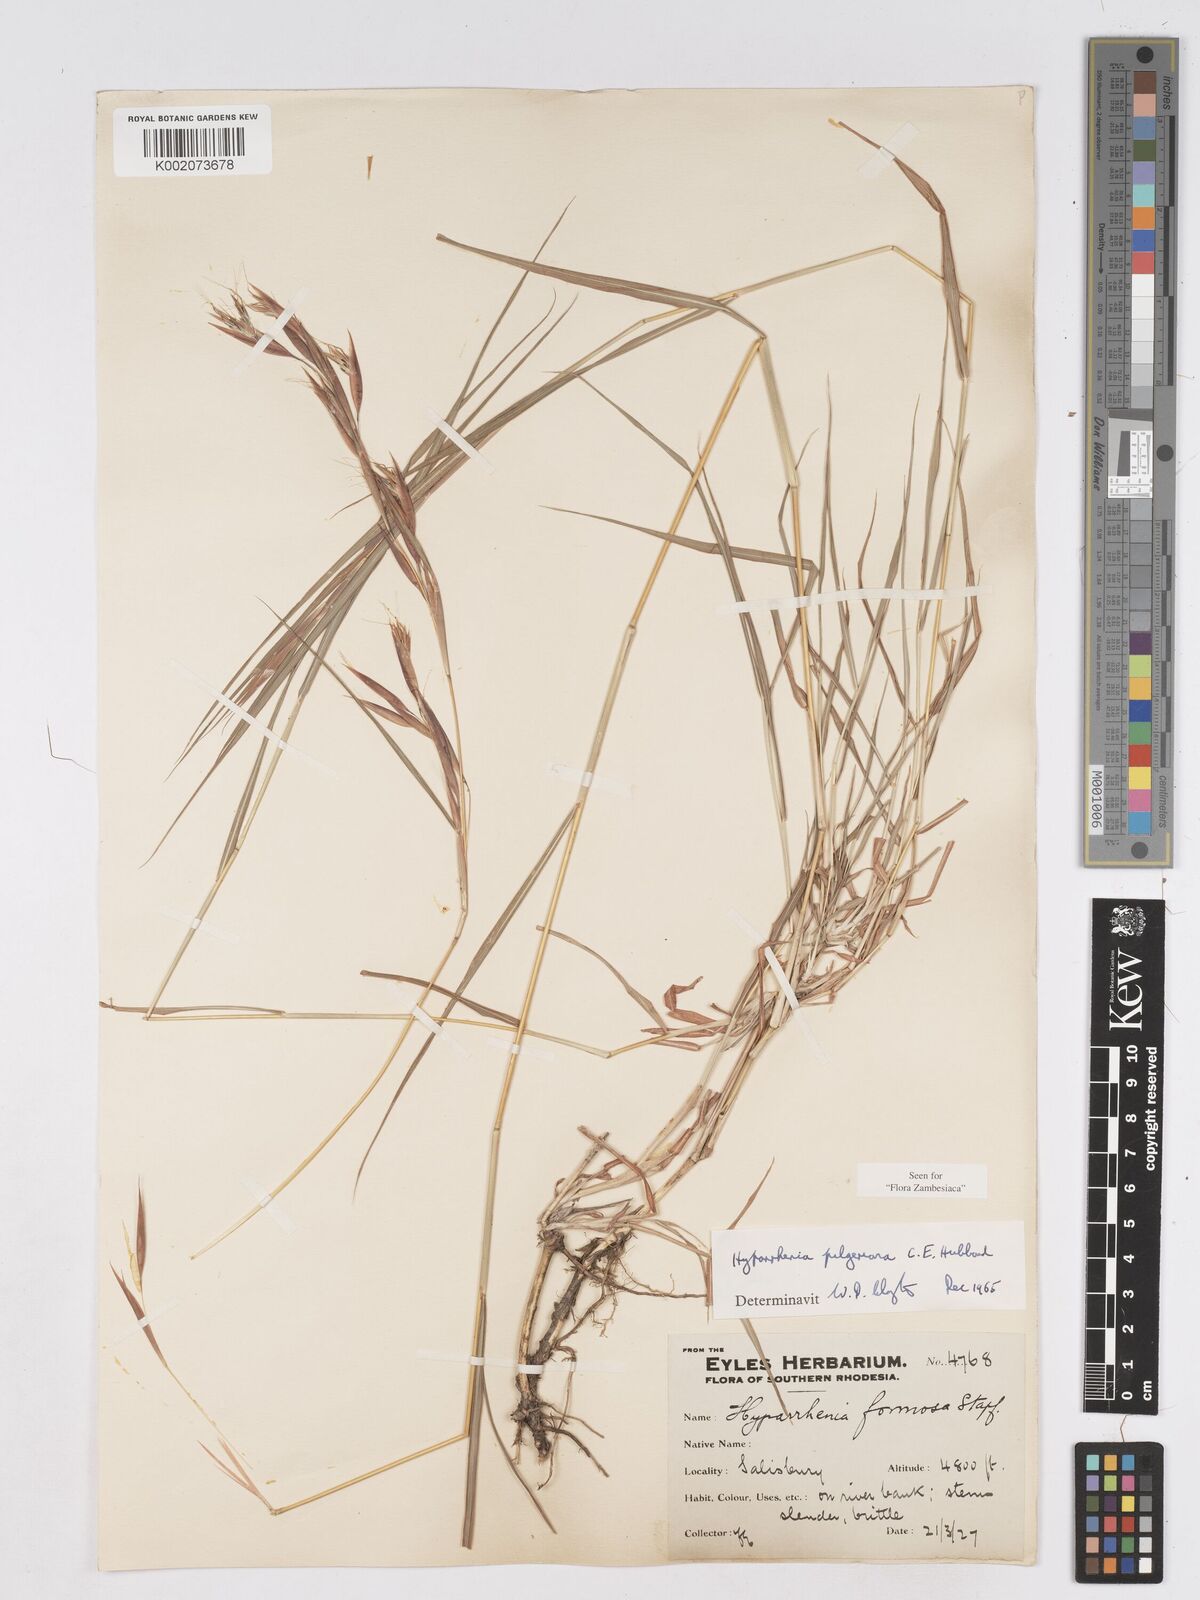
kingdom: Plantae
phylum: Tracheophyta
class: Liliopsida
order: Poales
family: Poaceae
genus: Hyparrhenia
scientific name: Hyparrhenia pilgeriana
